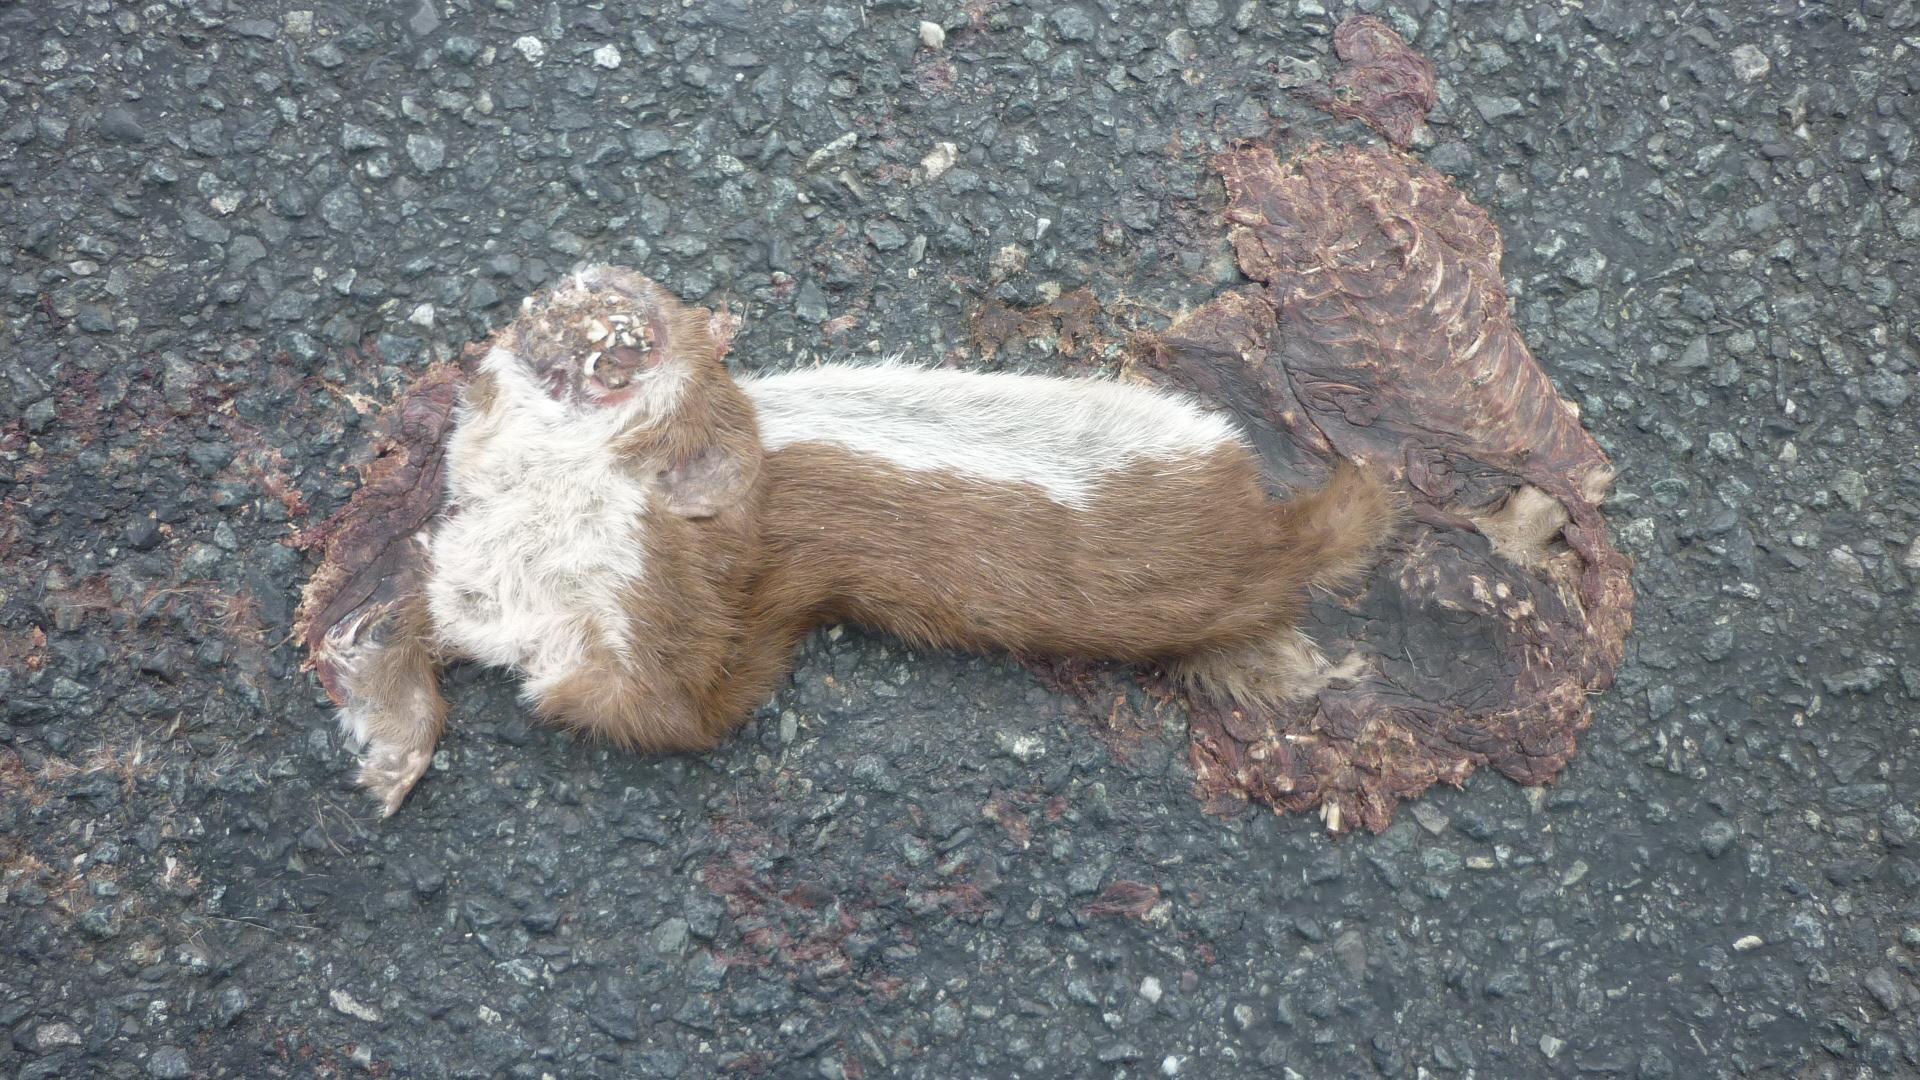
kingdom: Animalia
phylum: Chordata
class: Mammalia
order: Carnivora
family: Mustelidae
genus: Mustela
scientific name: Mustela nivalis
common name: Least weasel
